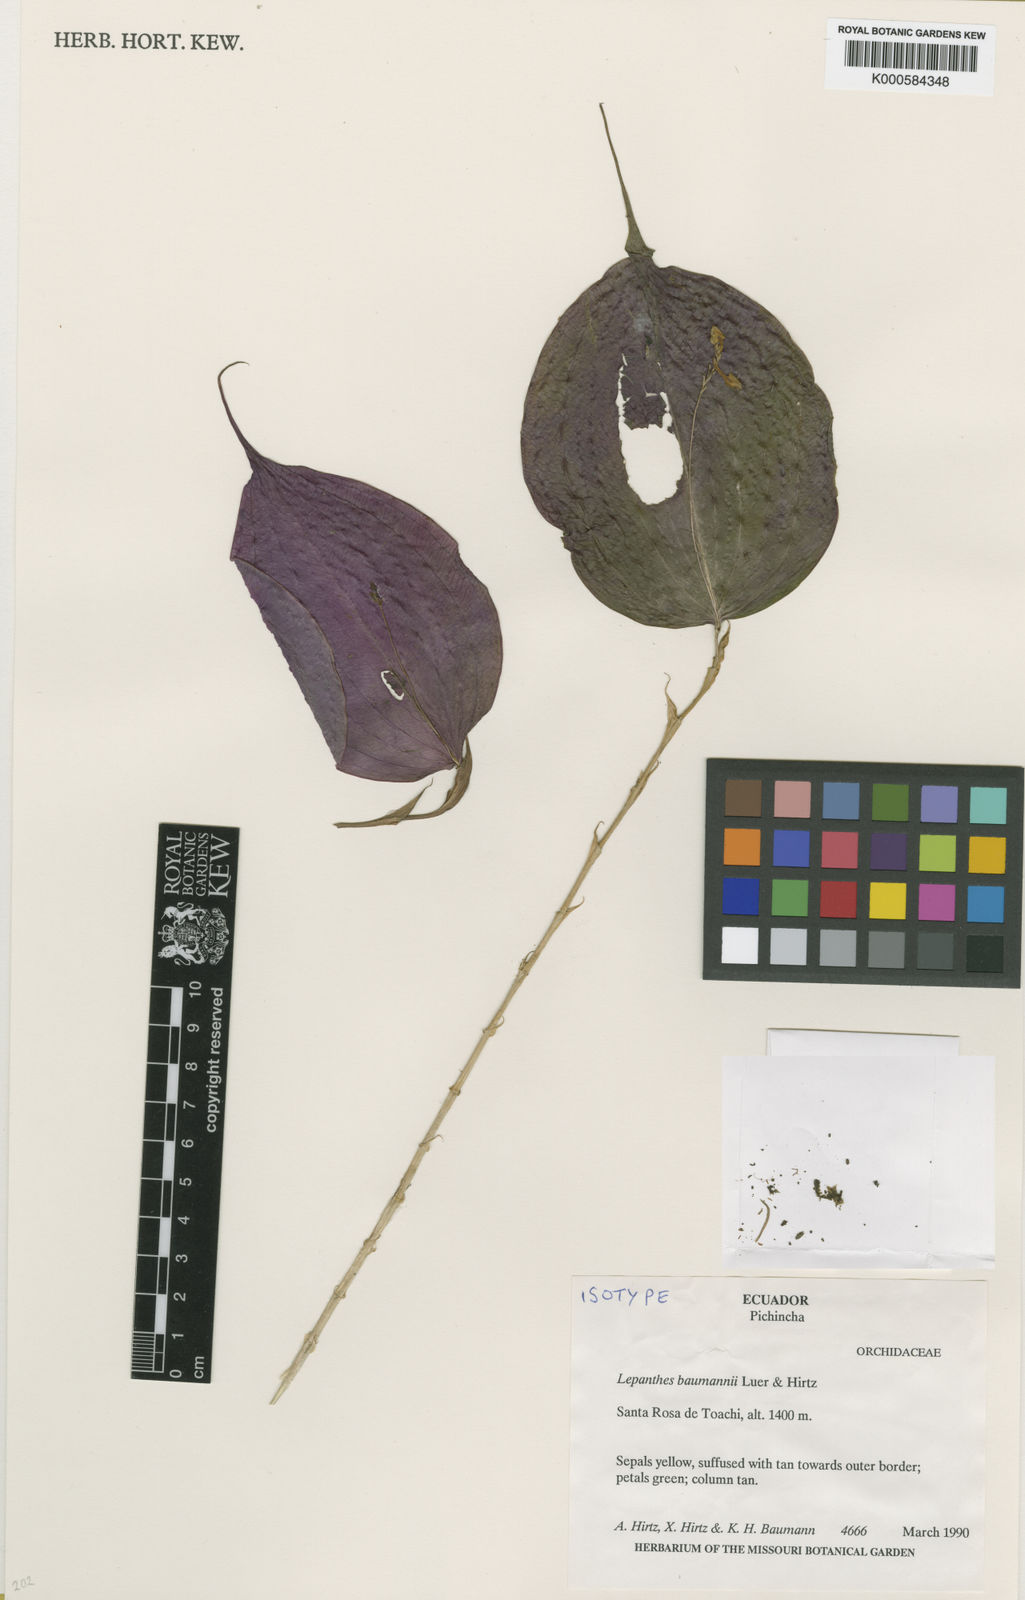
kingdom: Plantae
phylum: Tracheophyta
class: Liliopsida
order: Asparagales
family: Orchidaceae
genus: Lepanthes
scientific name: Lepanthes
